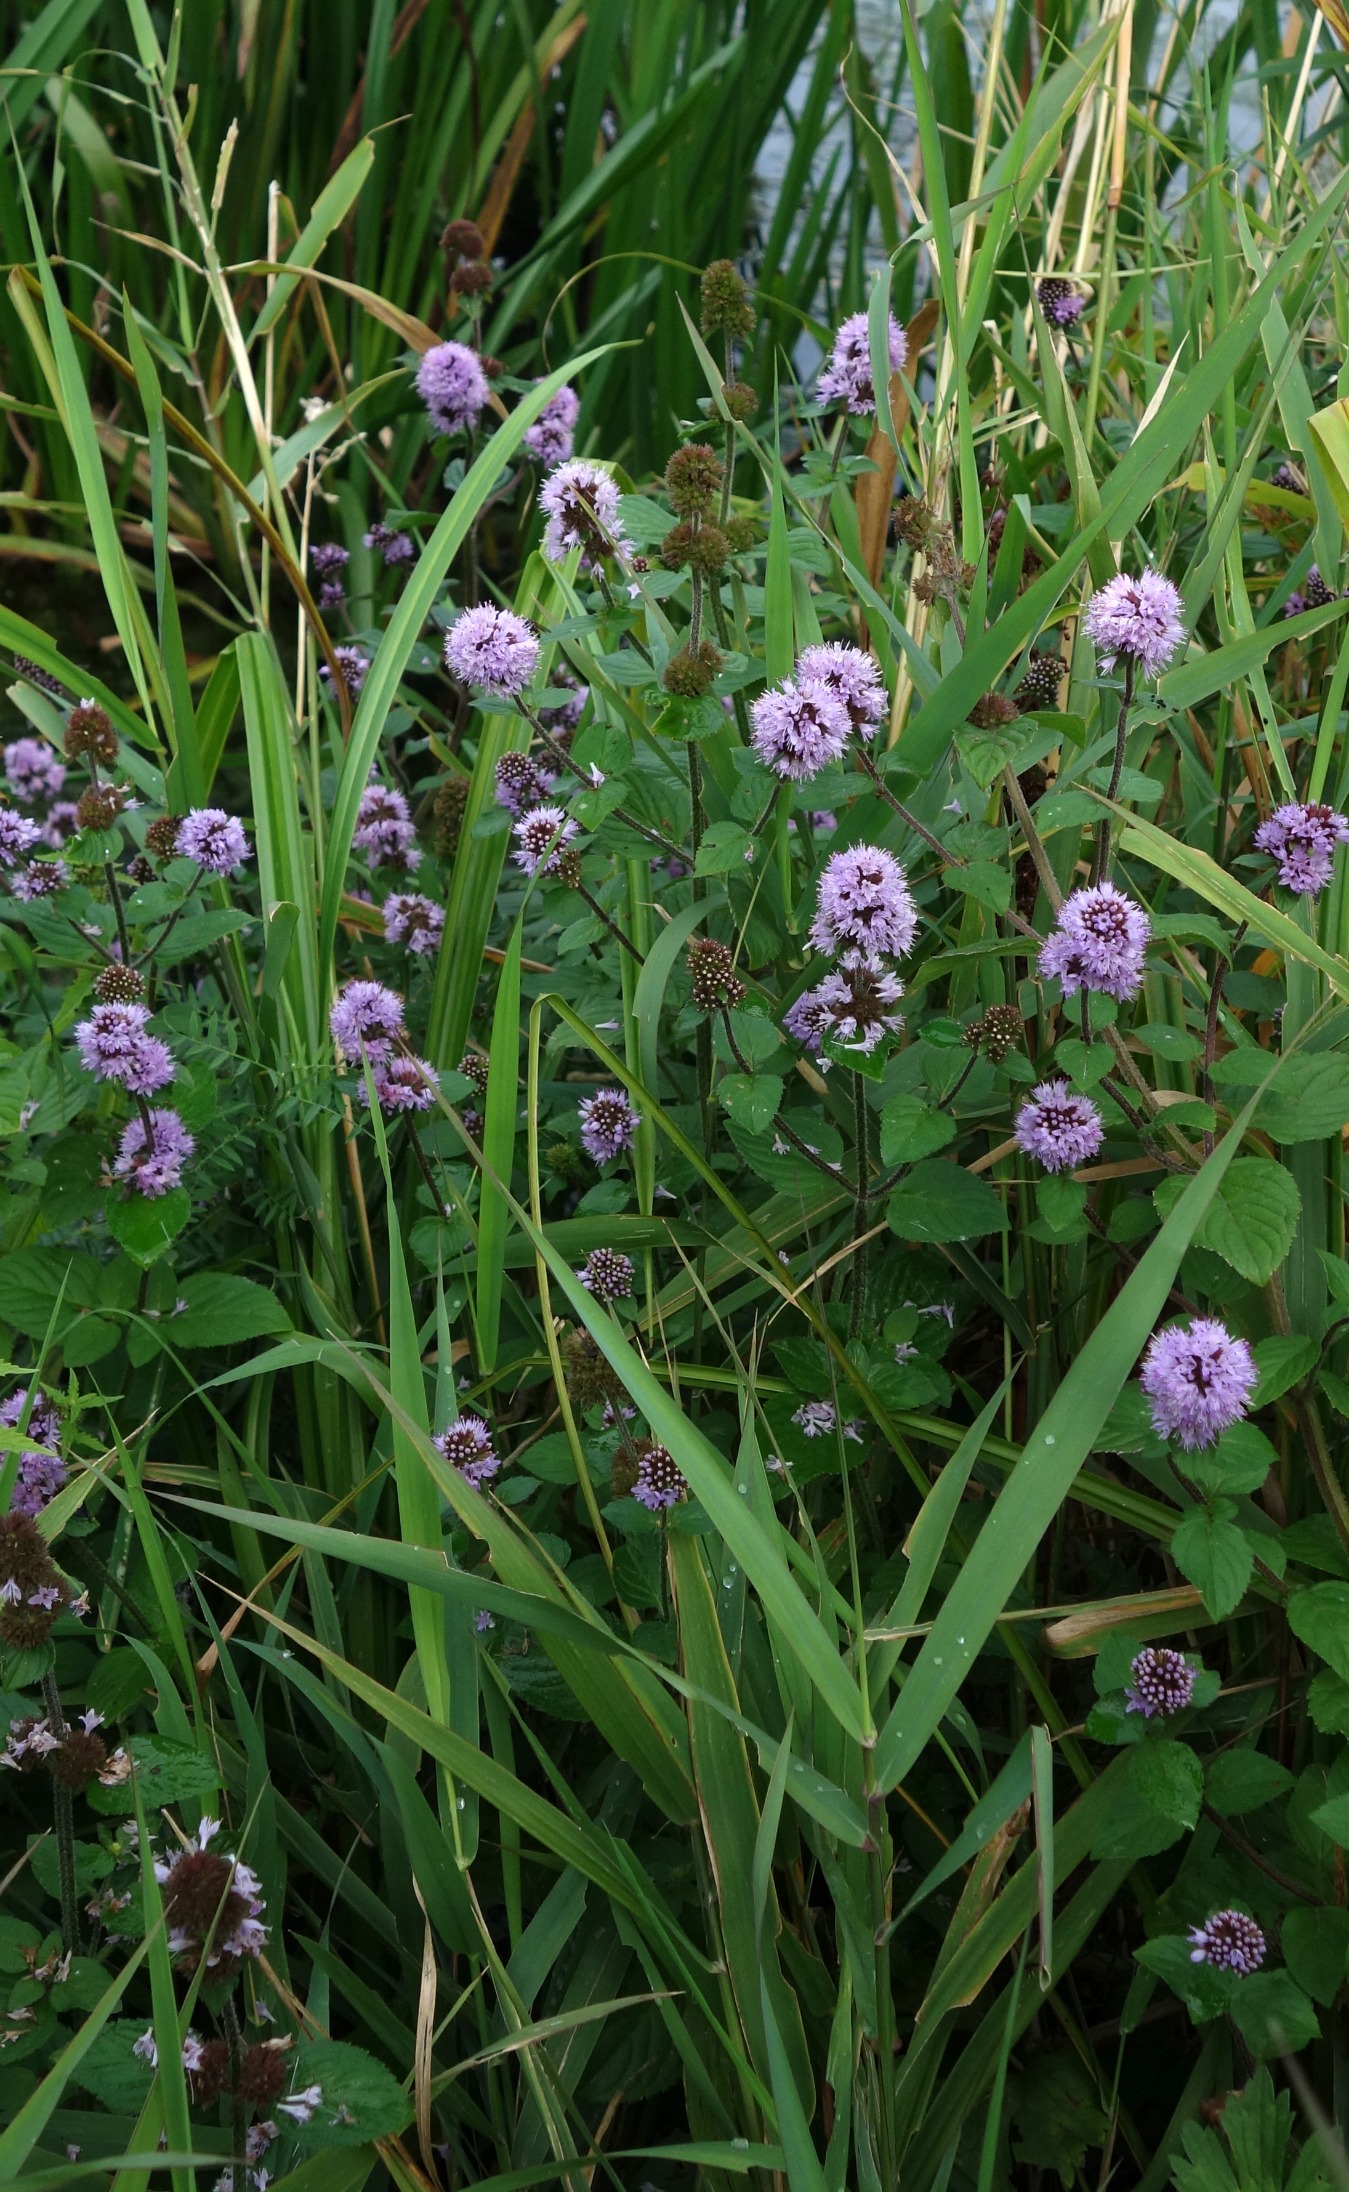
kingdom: Plantae
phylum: Tracheophyta
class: Magnoliopsida
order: Lamiales
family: Lamiaceae
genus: Mentha
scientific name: Mentha aquatica
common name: Vand-mynte
